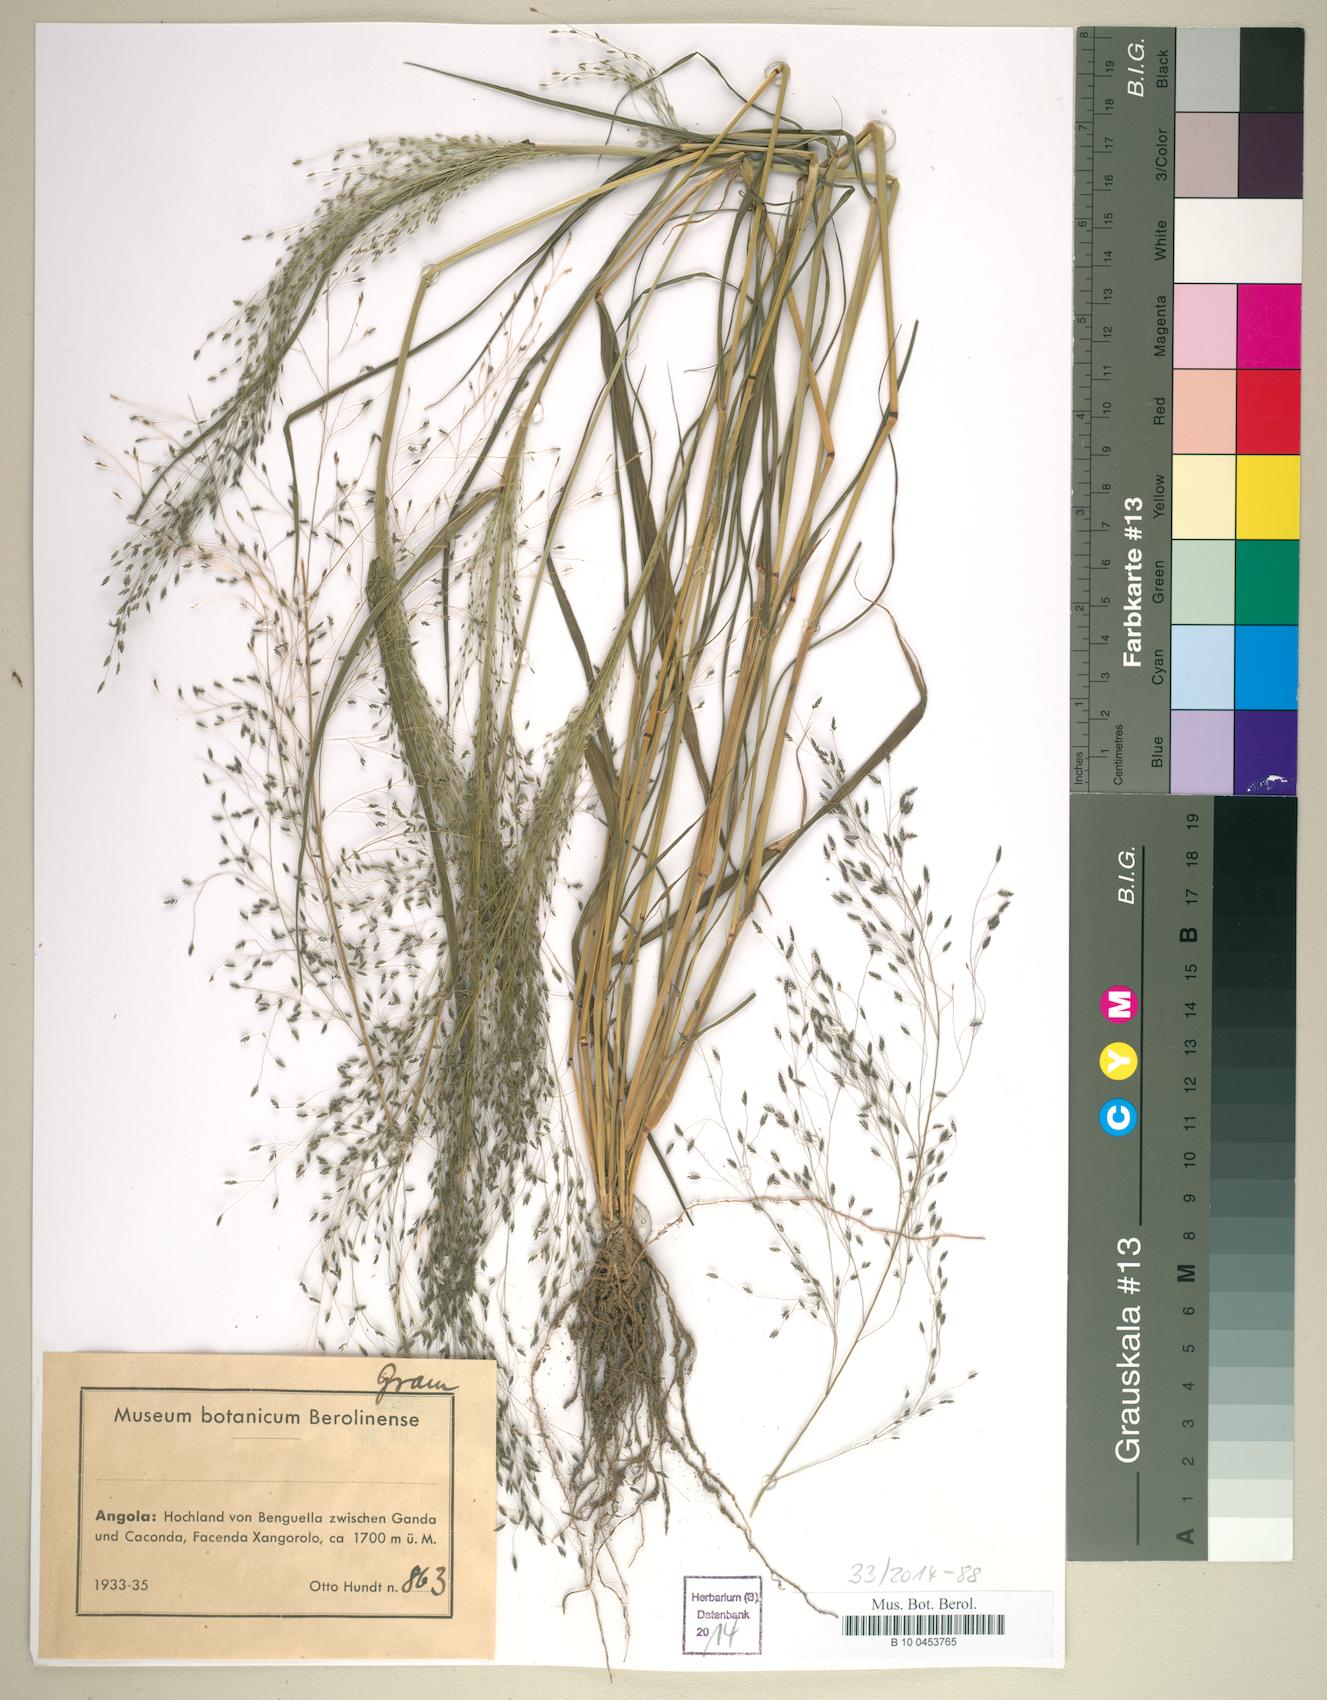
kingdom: Plantae
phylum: Tracheophyta
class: Liliopsida
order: Poales
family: Poaceae
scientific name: Poaceae
